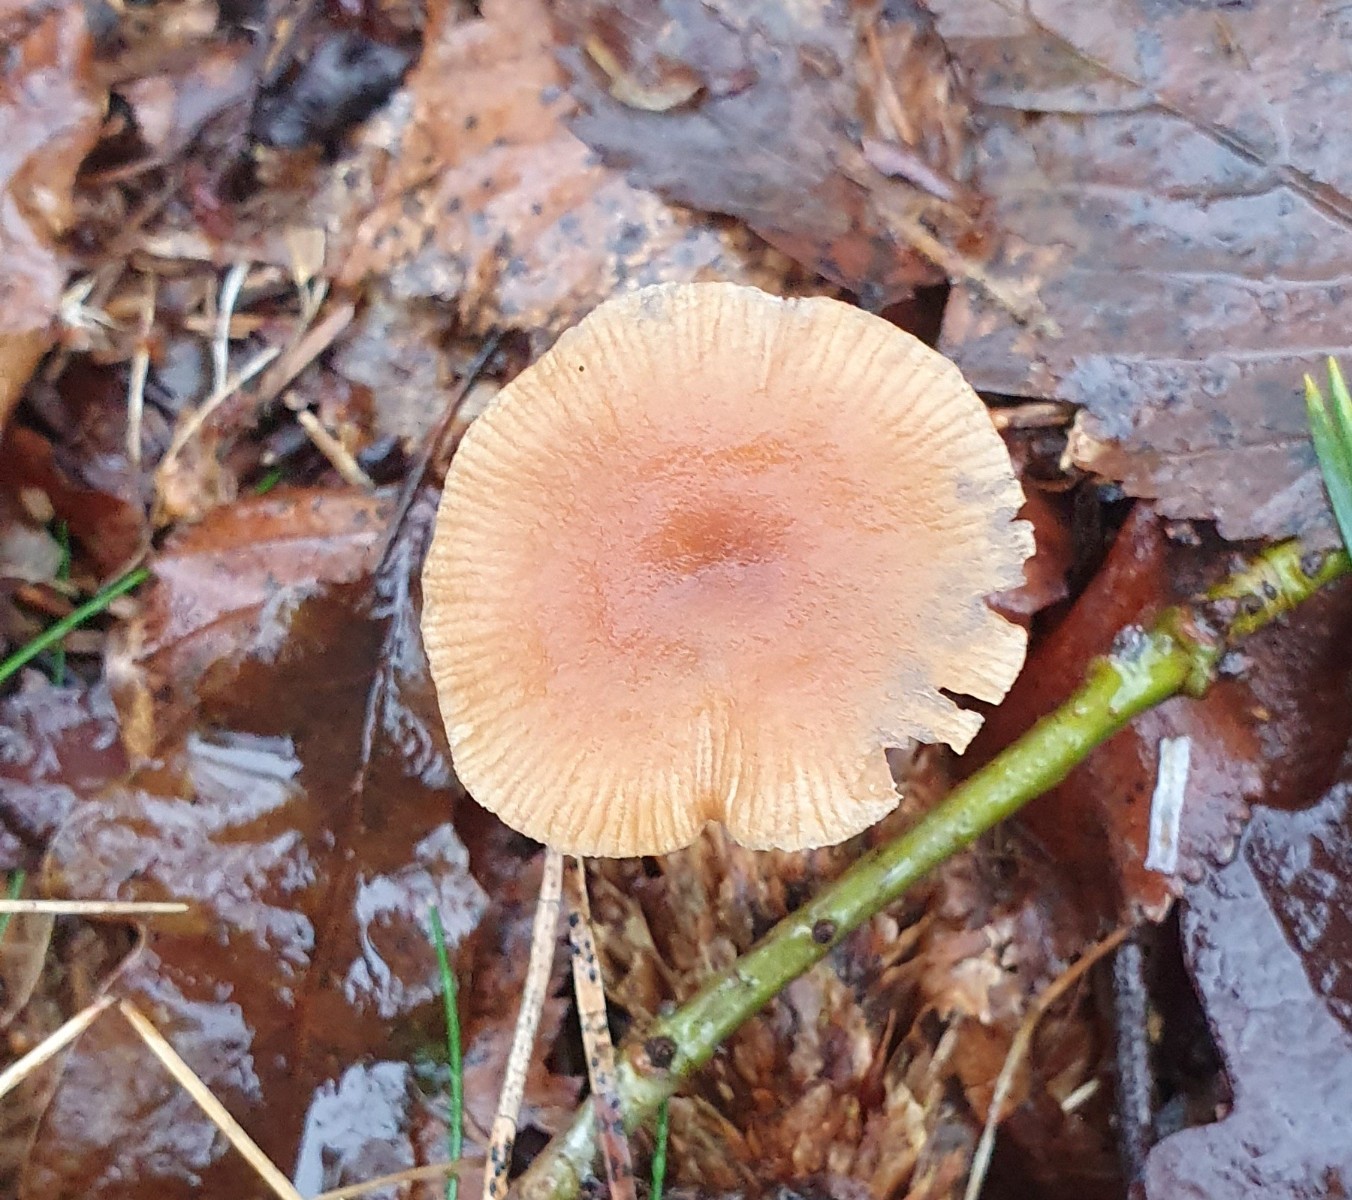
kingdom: Fungi
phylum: Basidiomycota
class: Agaricomycetes
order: Agaricales
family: Tubariaceae
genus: Tubaria
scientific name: Tubaria furfuracea
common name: kliddet fnughat
